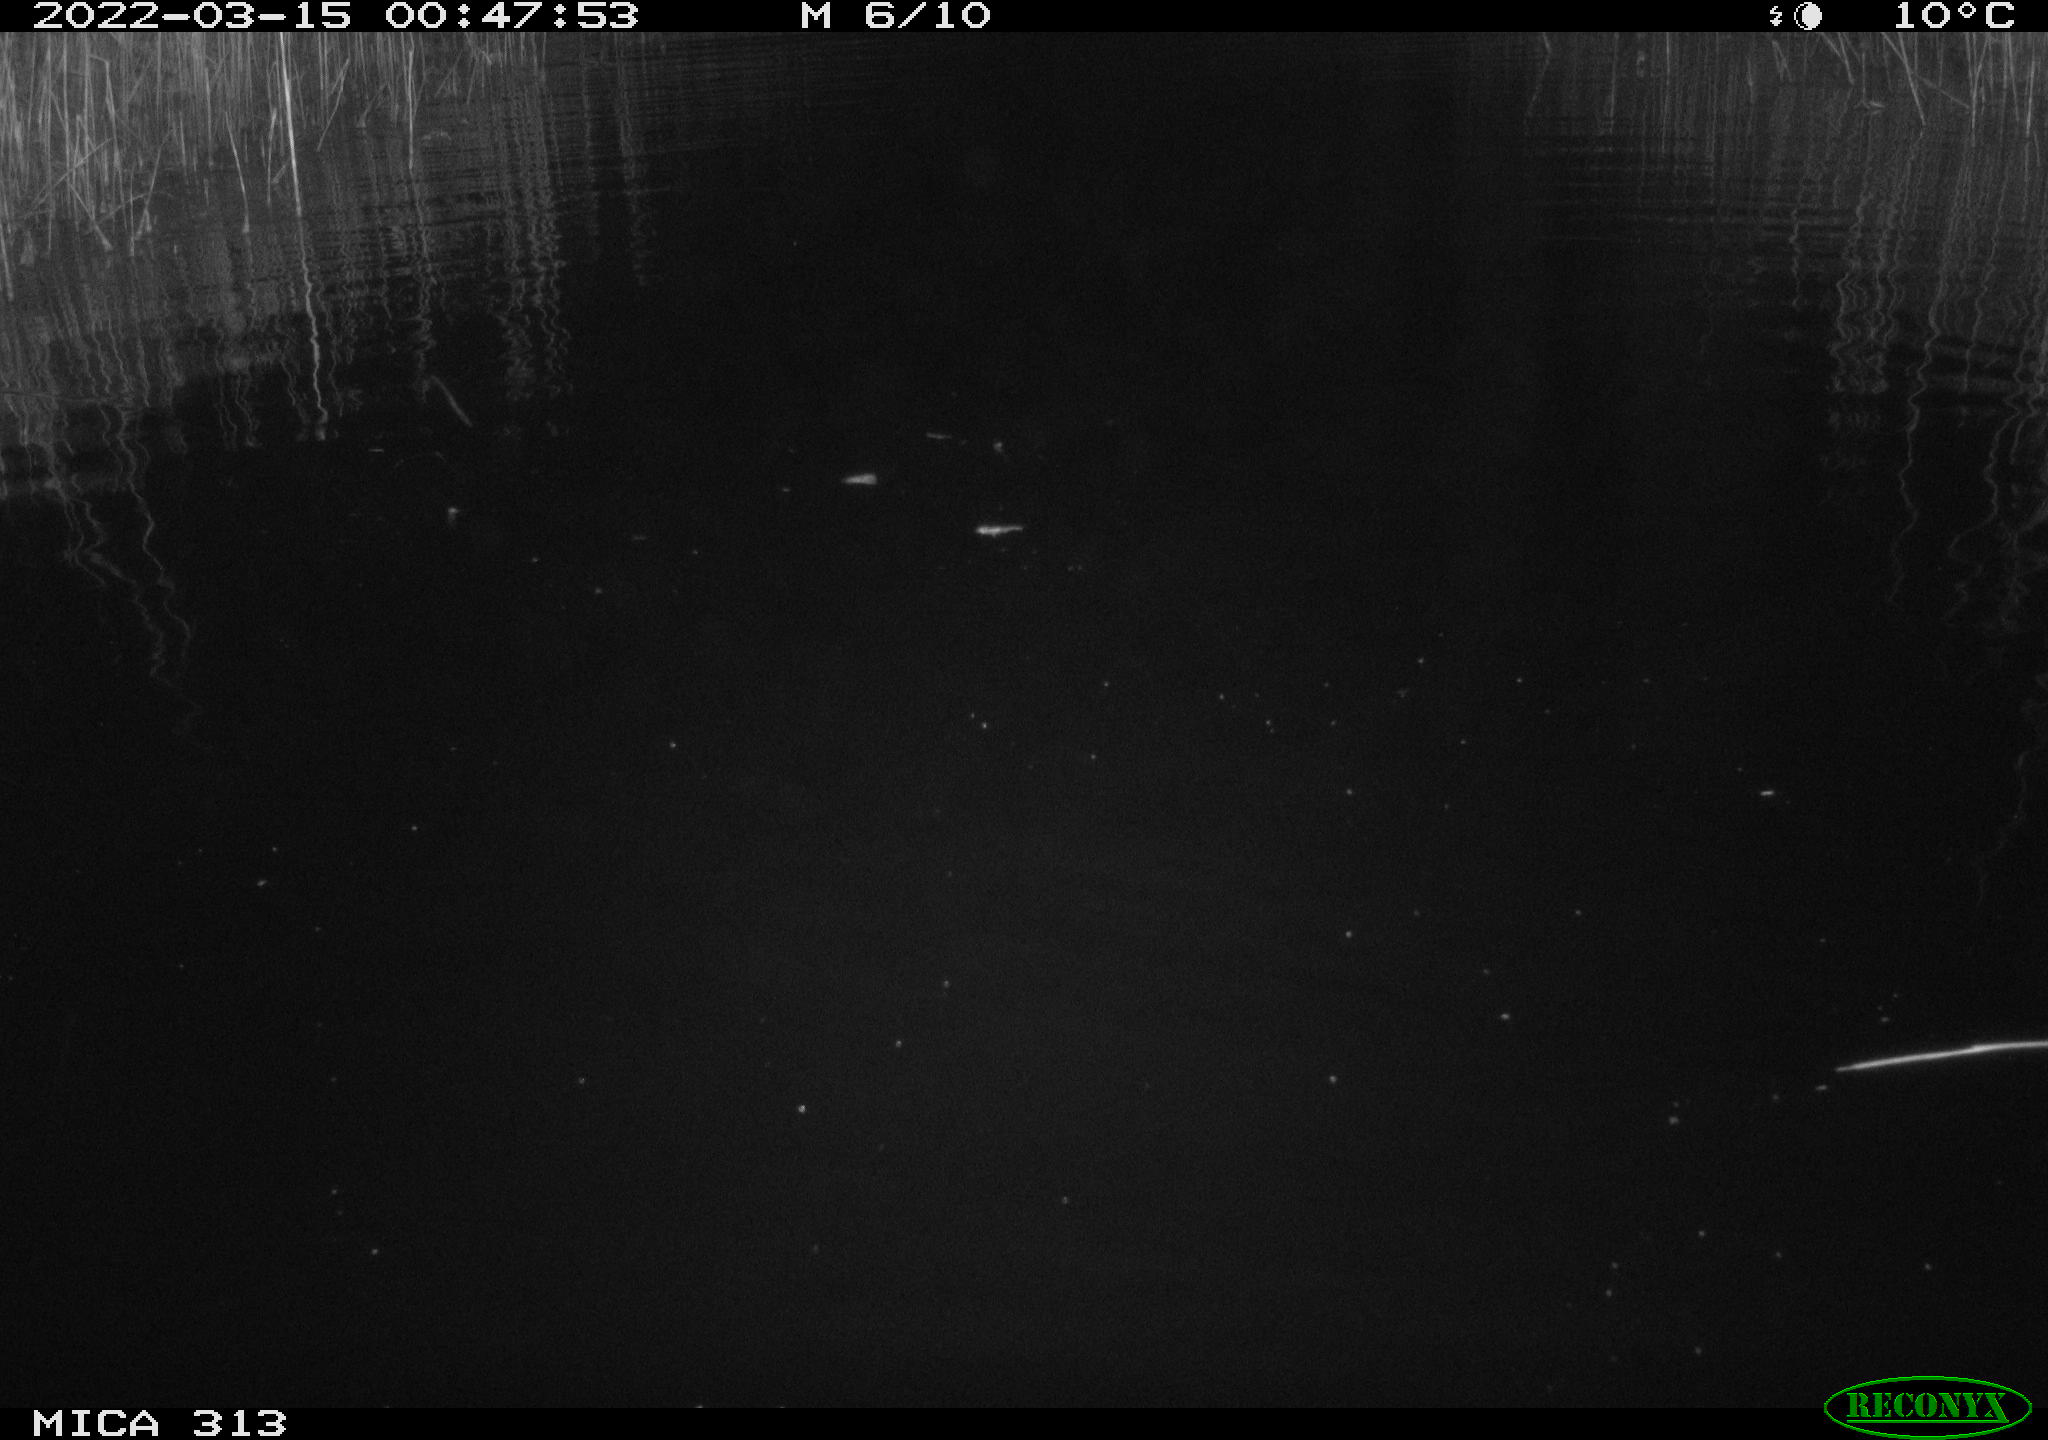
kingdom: Animalia
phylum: Chordata
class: Aves
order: Anseriformes
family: Anatidae
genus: Anas
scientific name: Anas platyrhynchos
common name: Mallard
